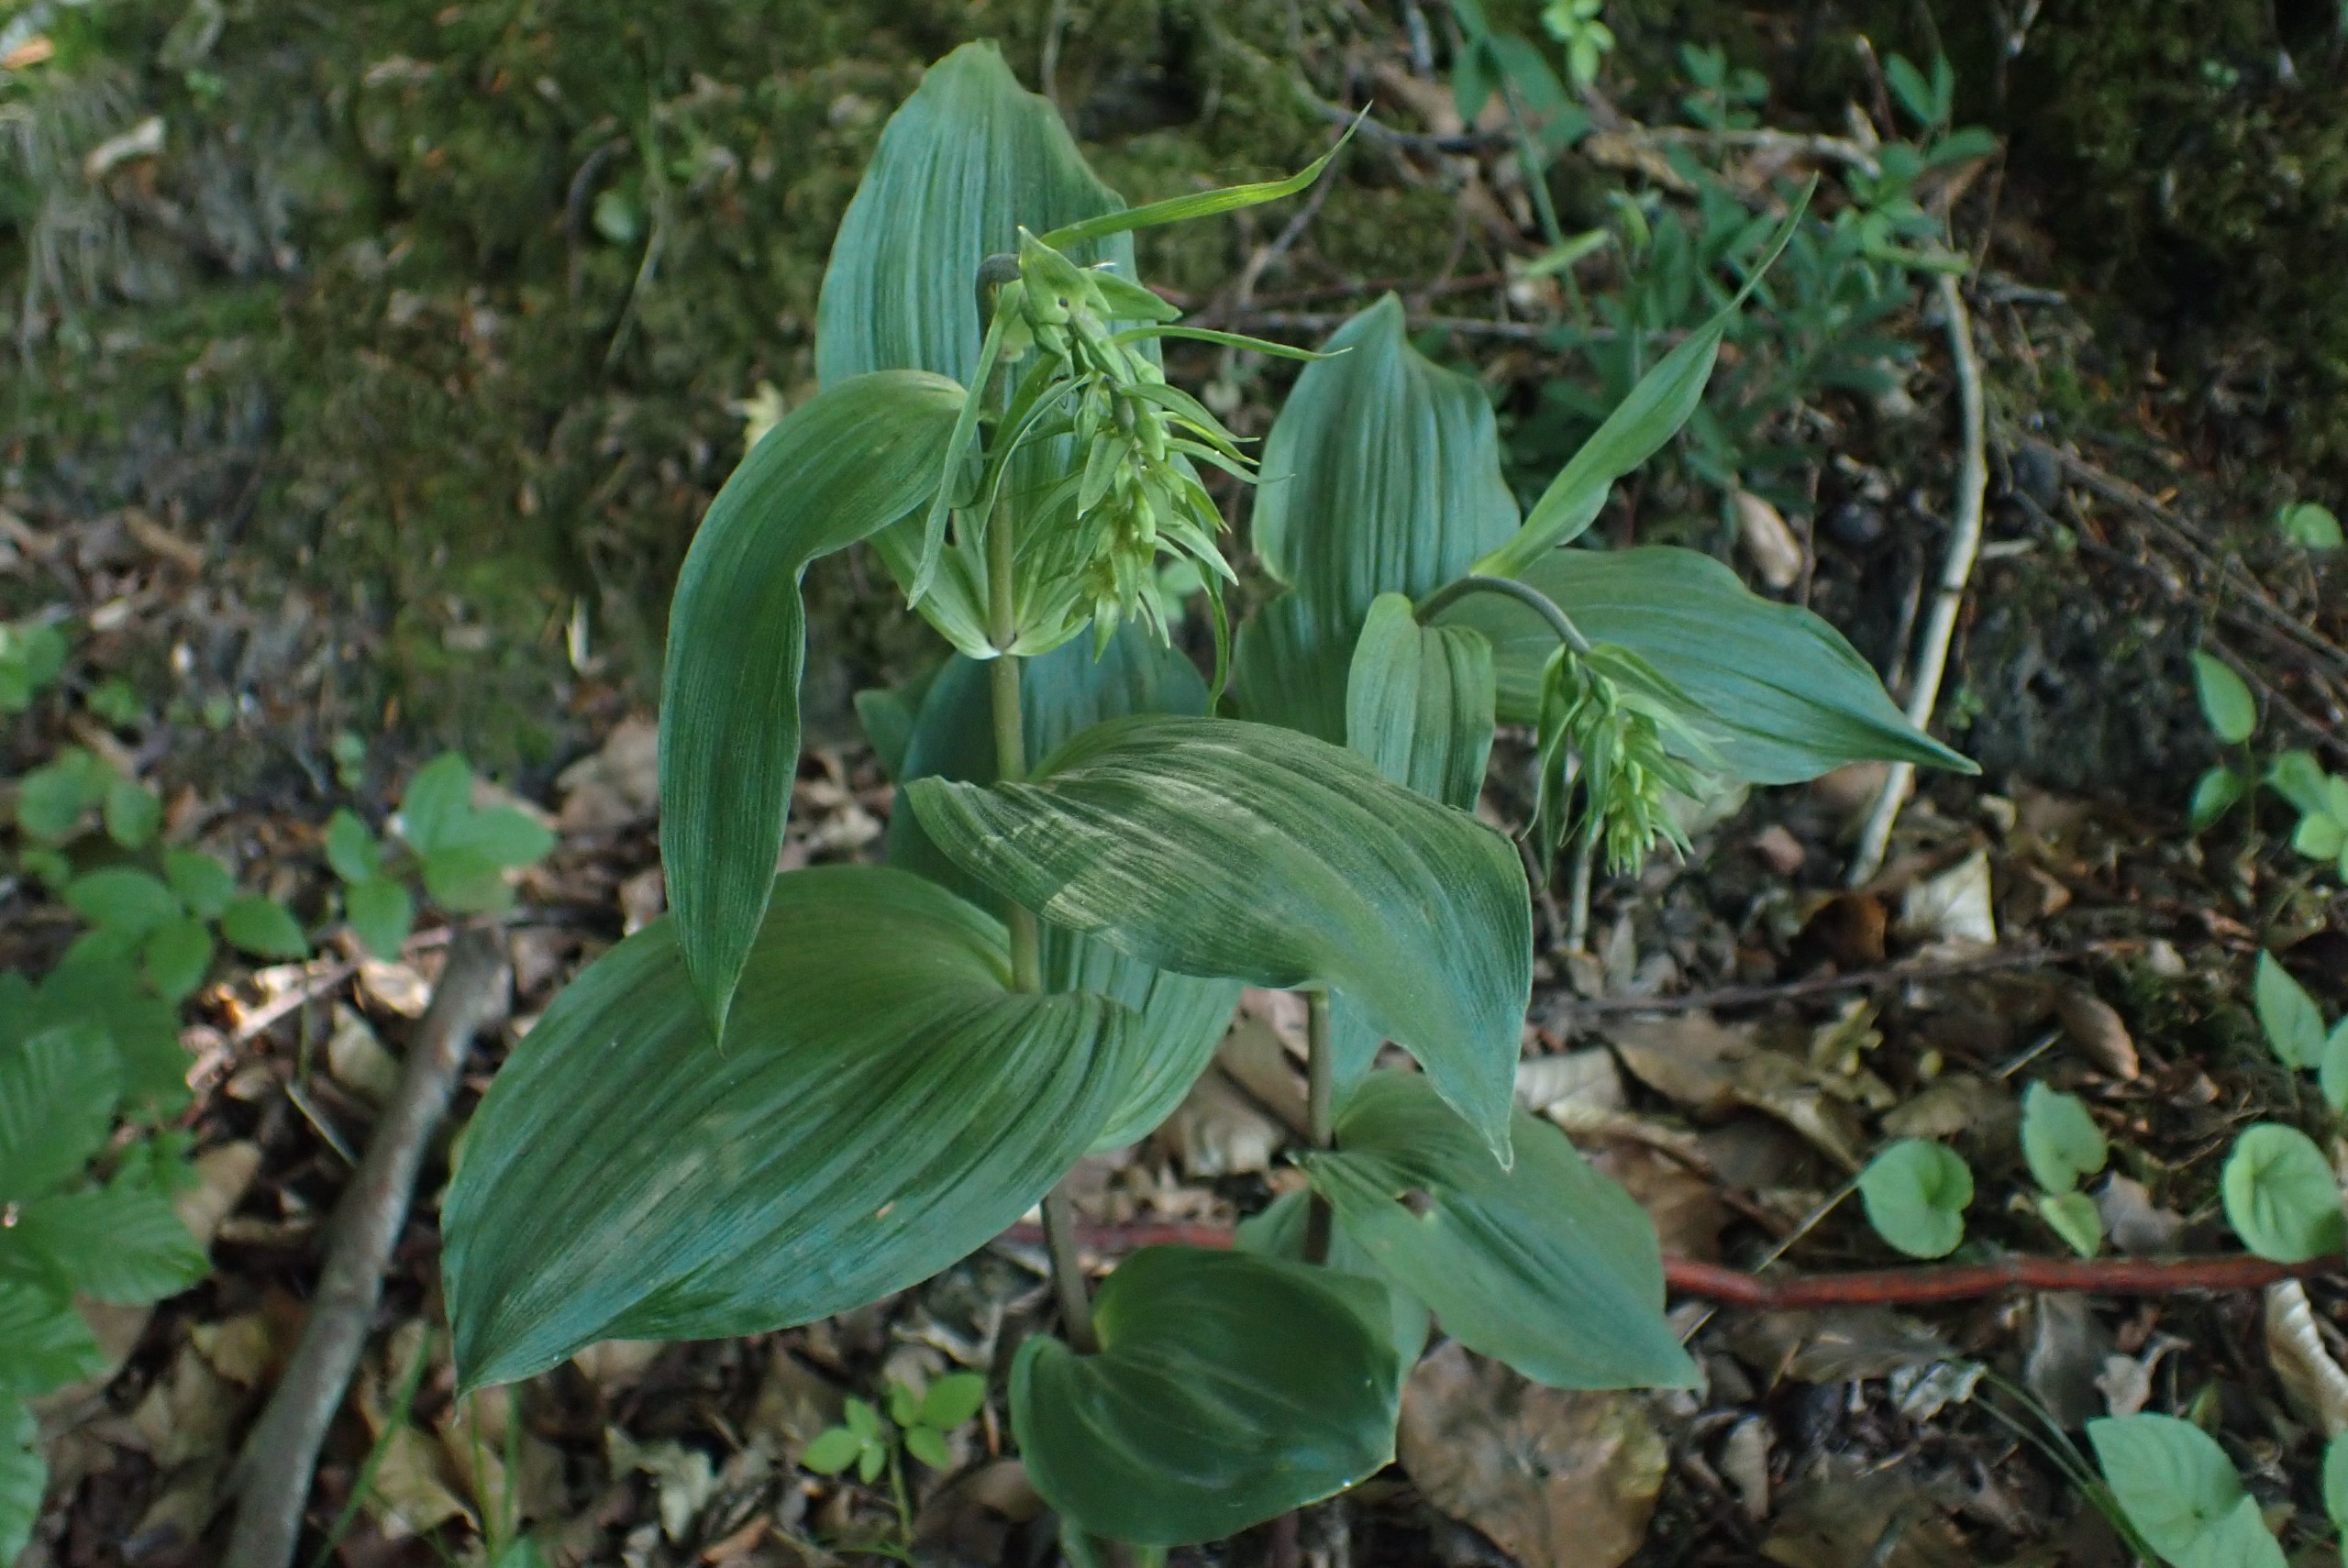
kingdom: Plantae
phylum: Tracheophyta
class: Liliopsida
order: Asparagales
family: Orchidaceae
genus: Epipactis
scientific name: Epipactis helleborine
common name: Skov-hullæbe
